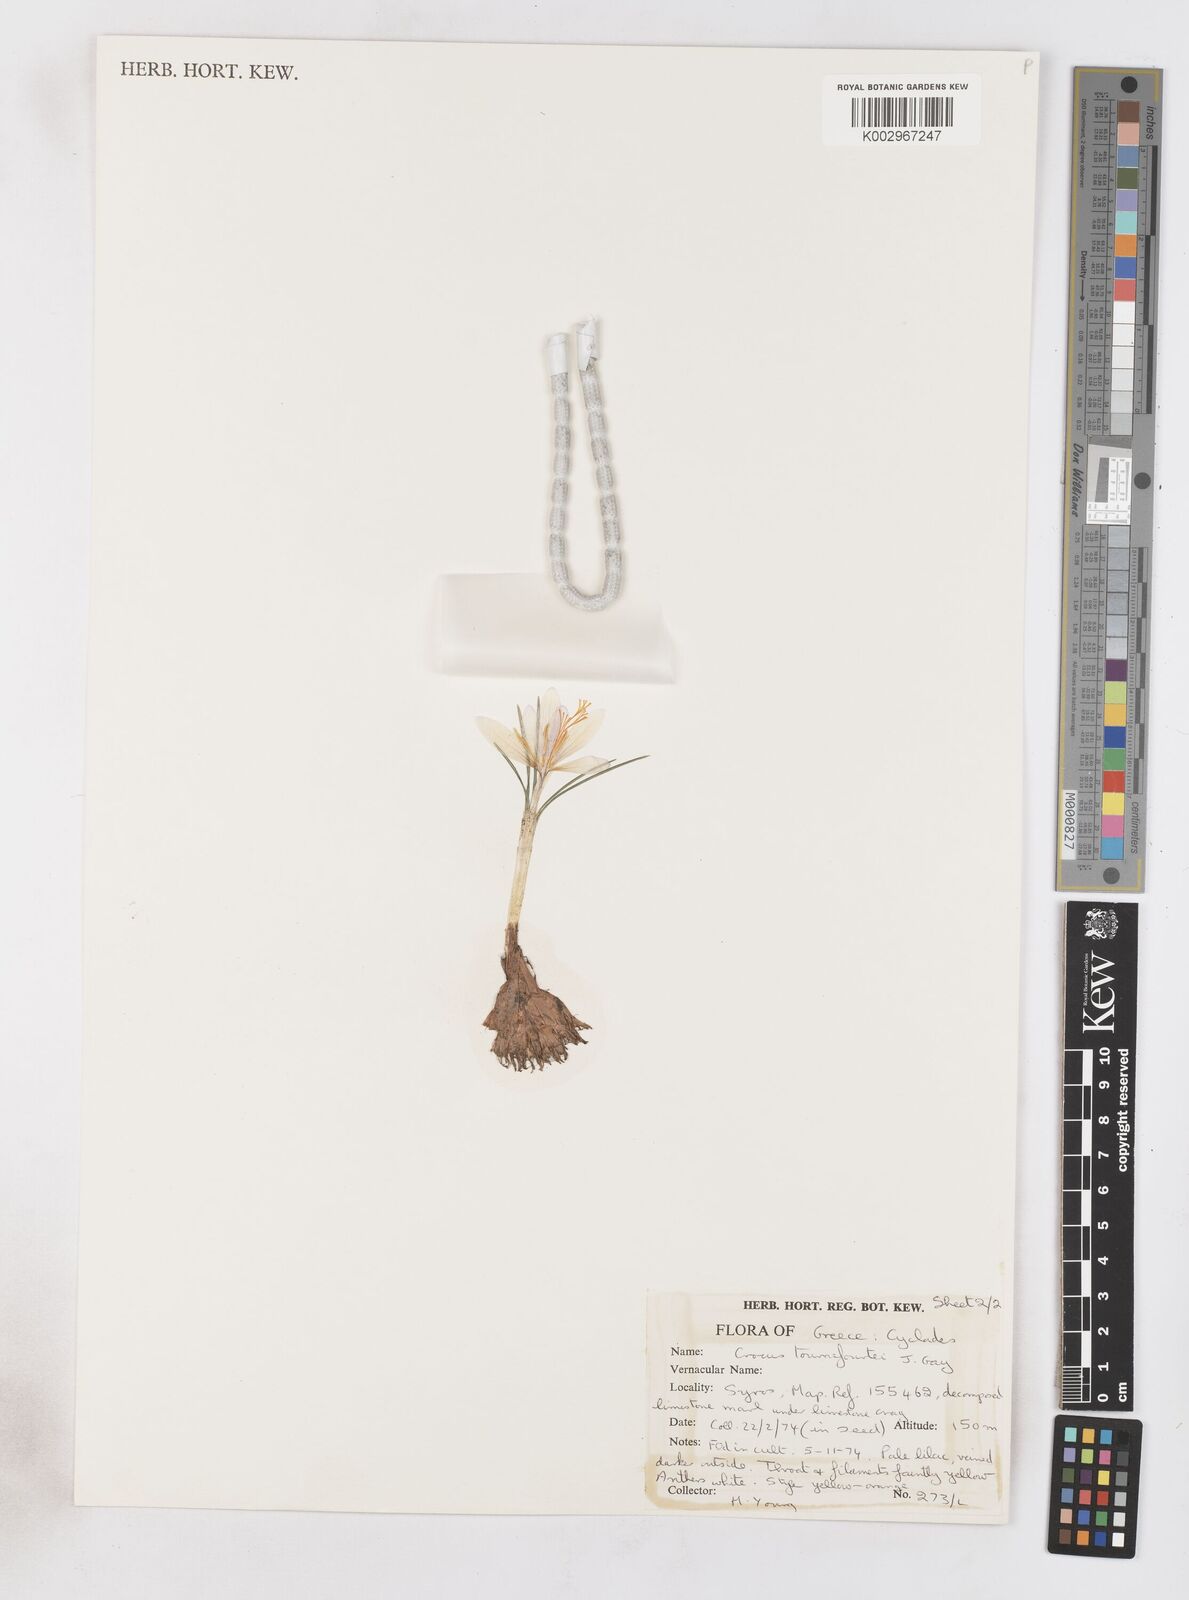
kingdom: Plantae
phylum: Tracheophyta
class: Liliopsida
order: Asparagales
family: Iridaceae
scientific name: Iridaceae
